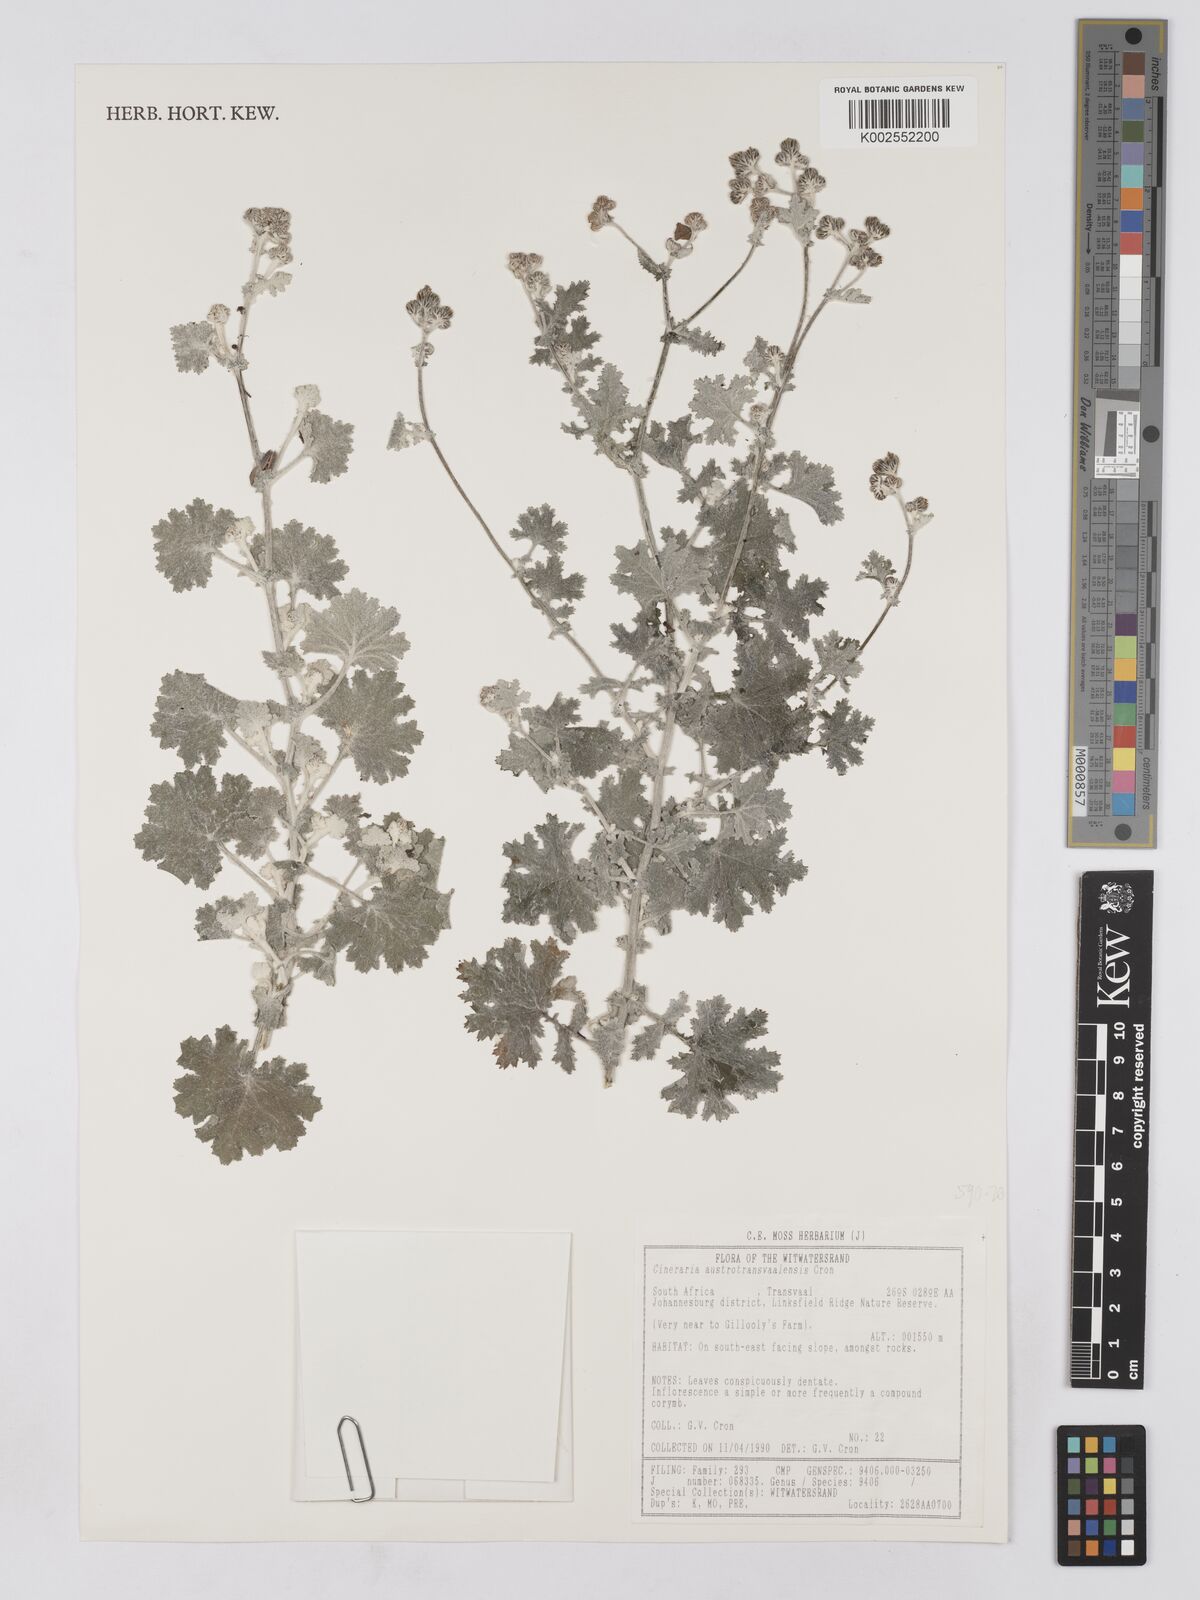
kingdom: Plantae
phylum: Tracheophyta
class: Magnoliopsida
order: Asterales
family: Asteraceae
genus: Cineraria
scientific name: Cineraria austrotransvaalensis
